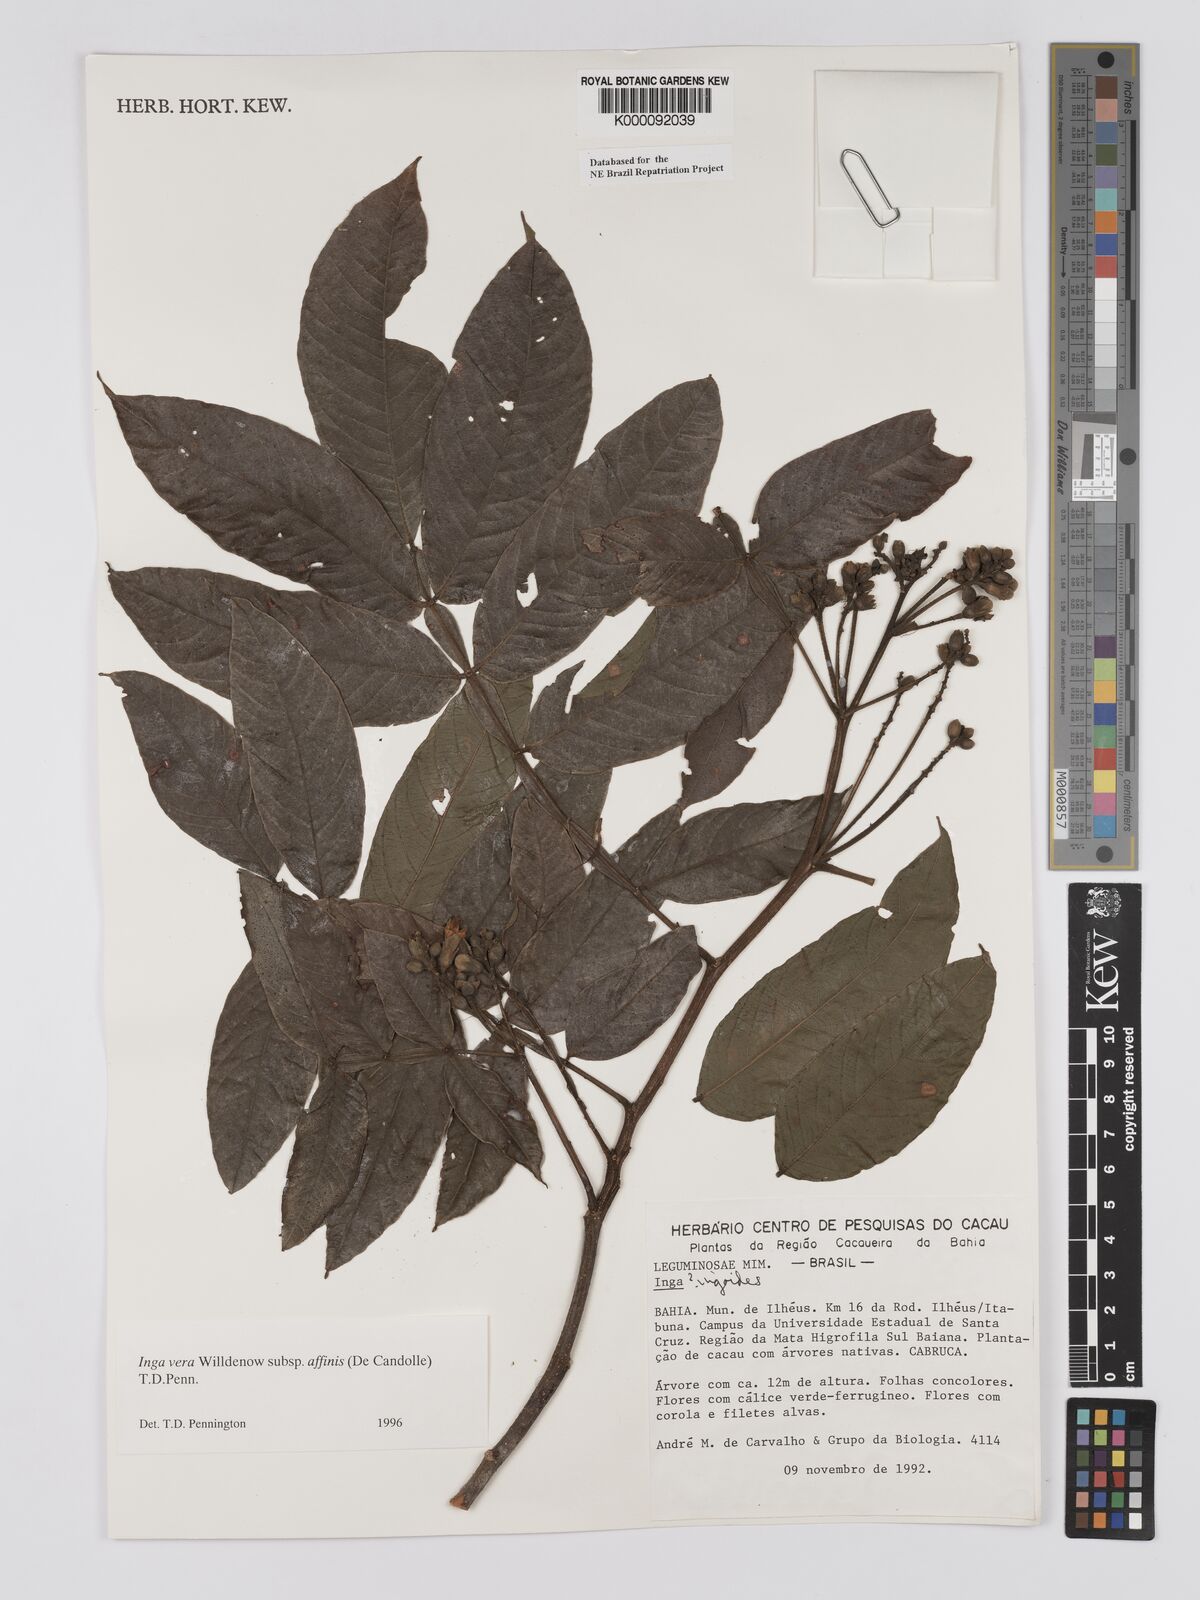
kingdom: Plantae
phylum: Tracheophyta
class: Magnoliopsida
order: Fabales
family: Fabaceae
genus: Inga
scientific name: Inga affinis
